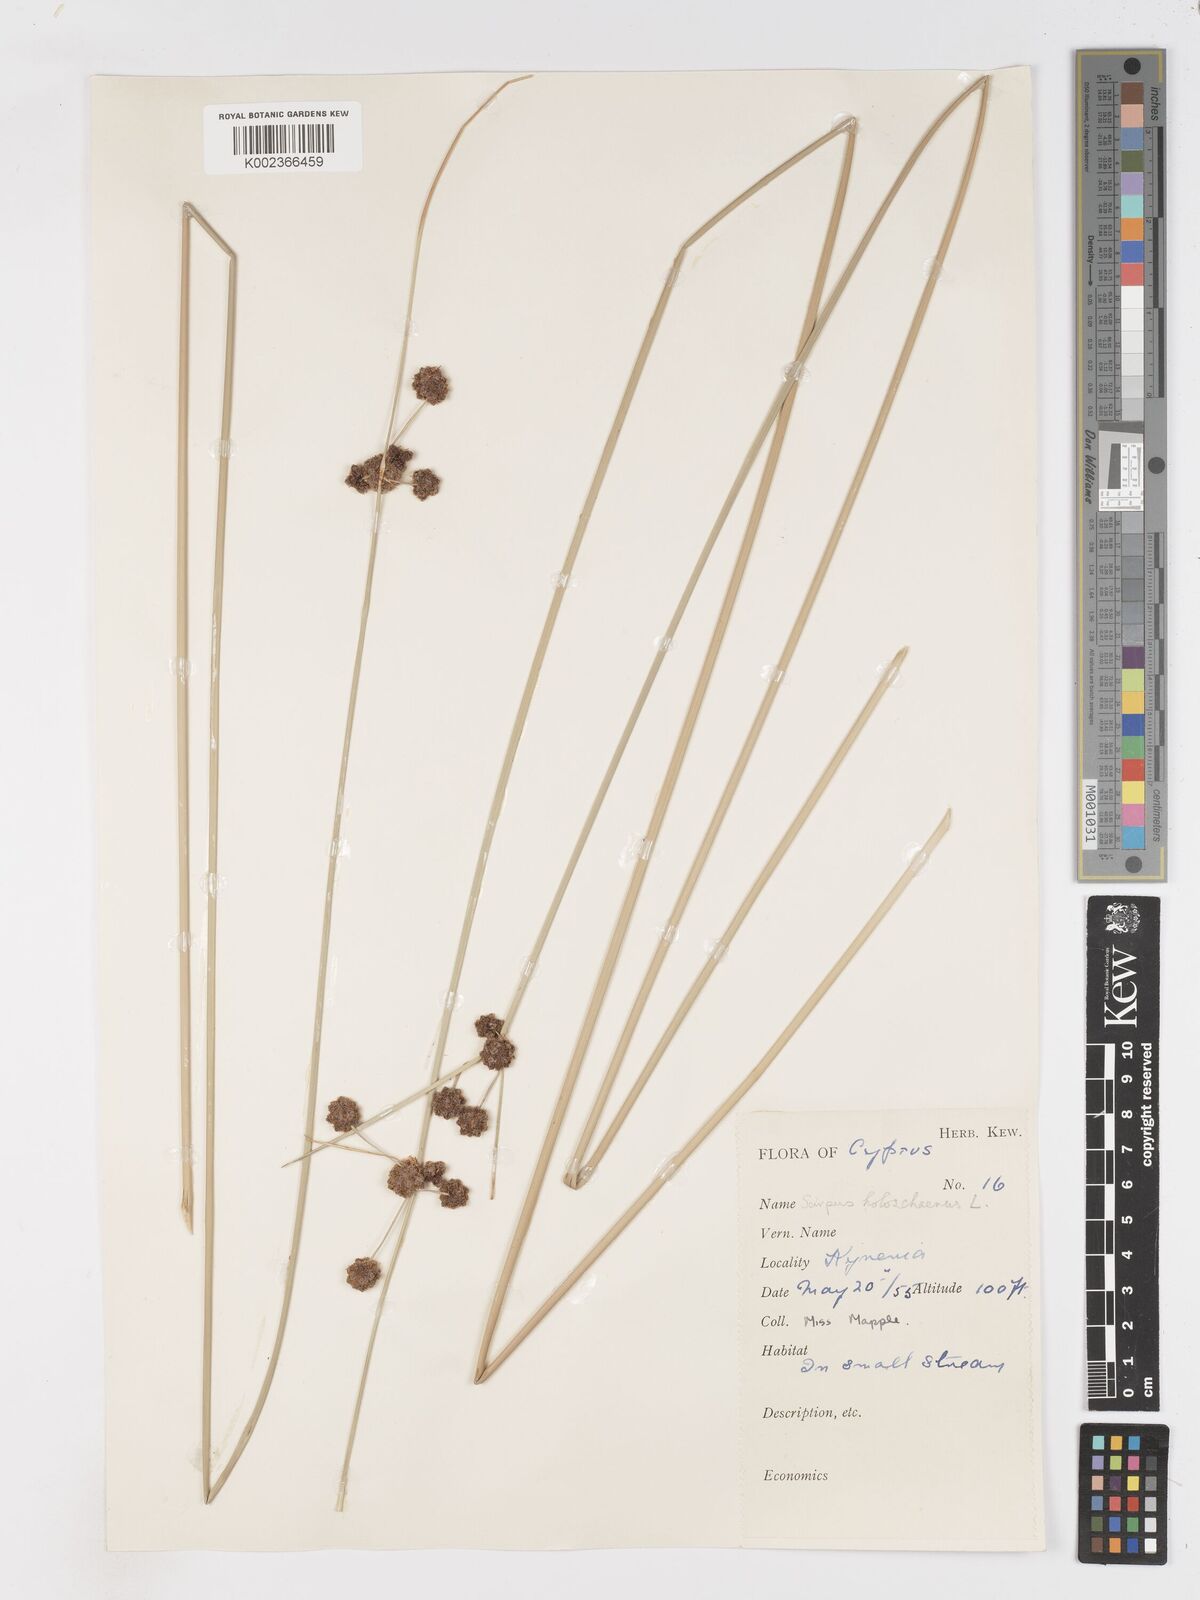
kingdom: Plantae
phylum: Tracheophyta
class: Liliopsida
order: Poales
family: Cyperaceae
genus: Scirpoides
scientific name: Scirpoides holoschoenus
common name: Round-headed club-rush
